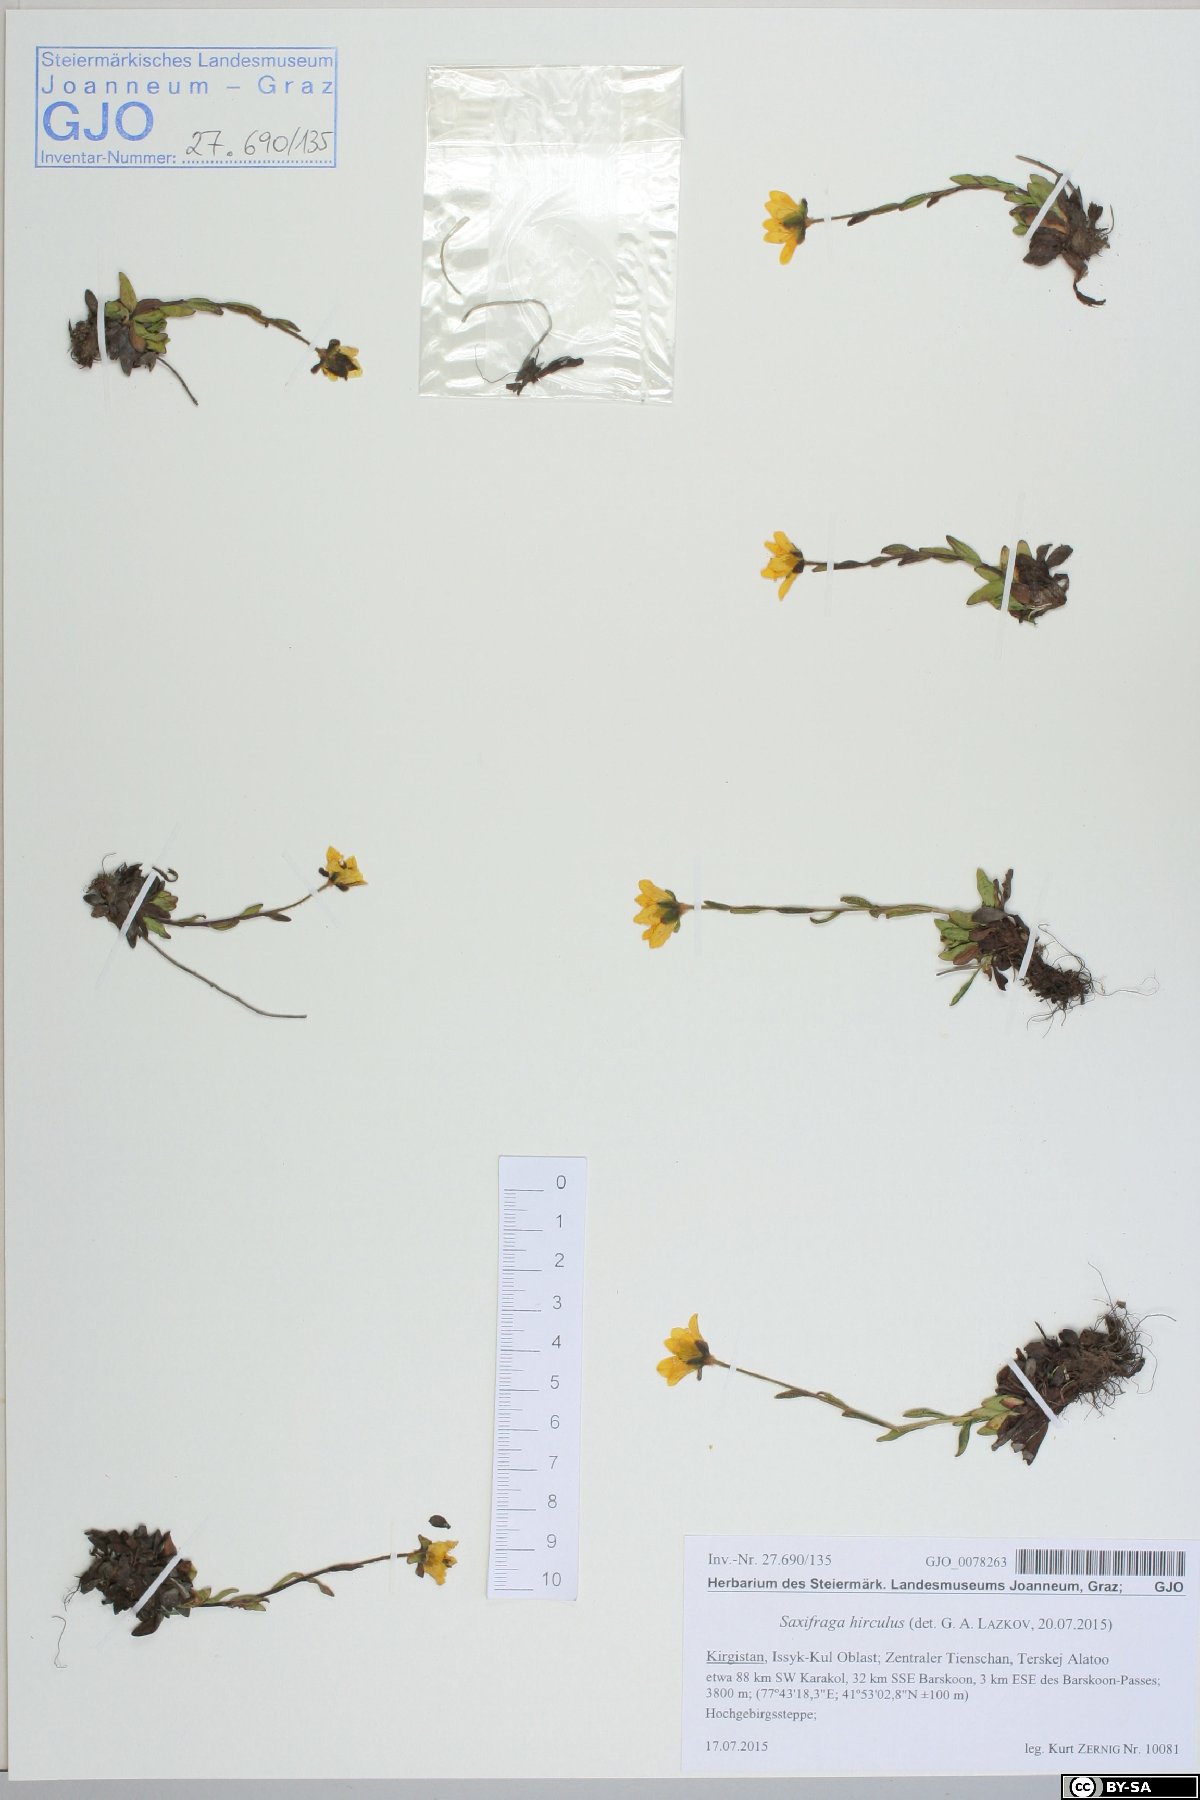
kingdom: Plantae
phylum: Tracheophyta
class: Magnoliopsida
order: Saxifragales
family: Saxifragaceae
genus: Saxifraga
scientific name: Saxifraga hirculus
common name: Yellow marsh saxifrage
